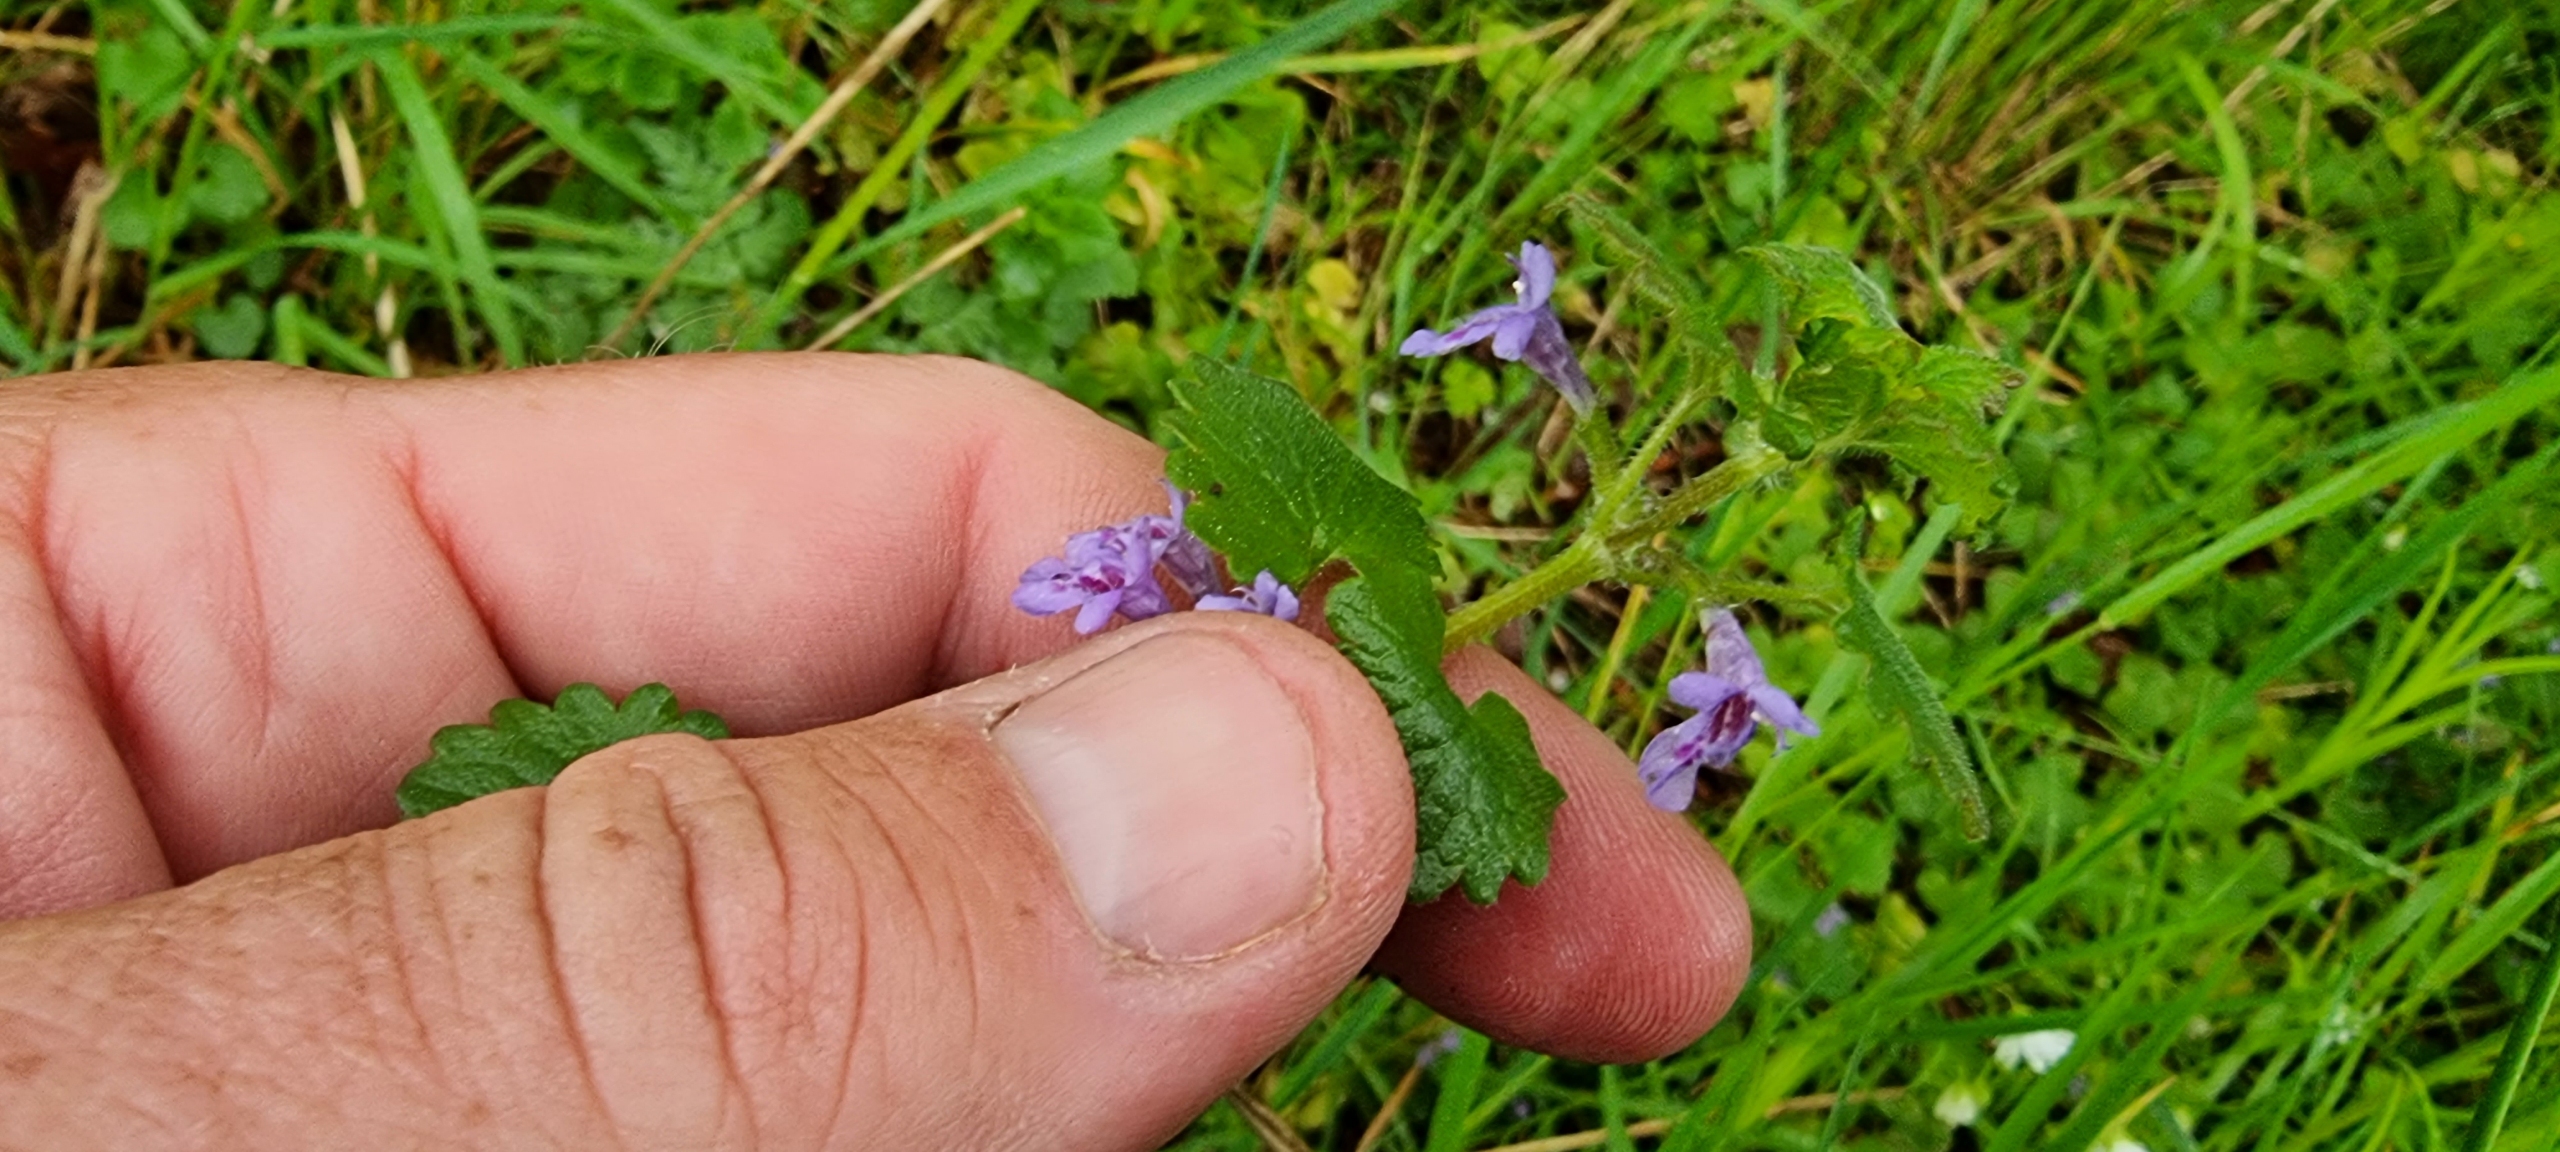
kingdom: Plantae
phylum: Tracheophyta
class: Magnoliopsida
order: Lamiales
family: Lamiaceae
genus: Glechoma
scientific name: Glechoma hederacea
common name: Korsknap
